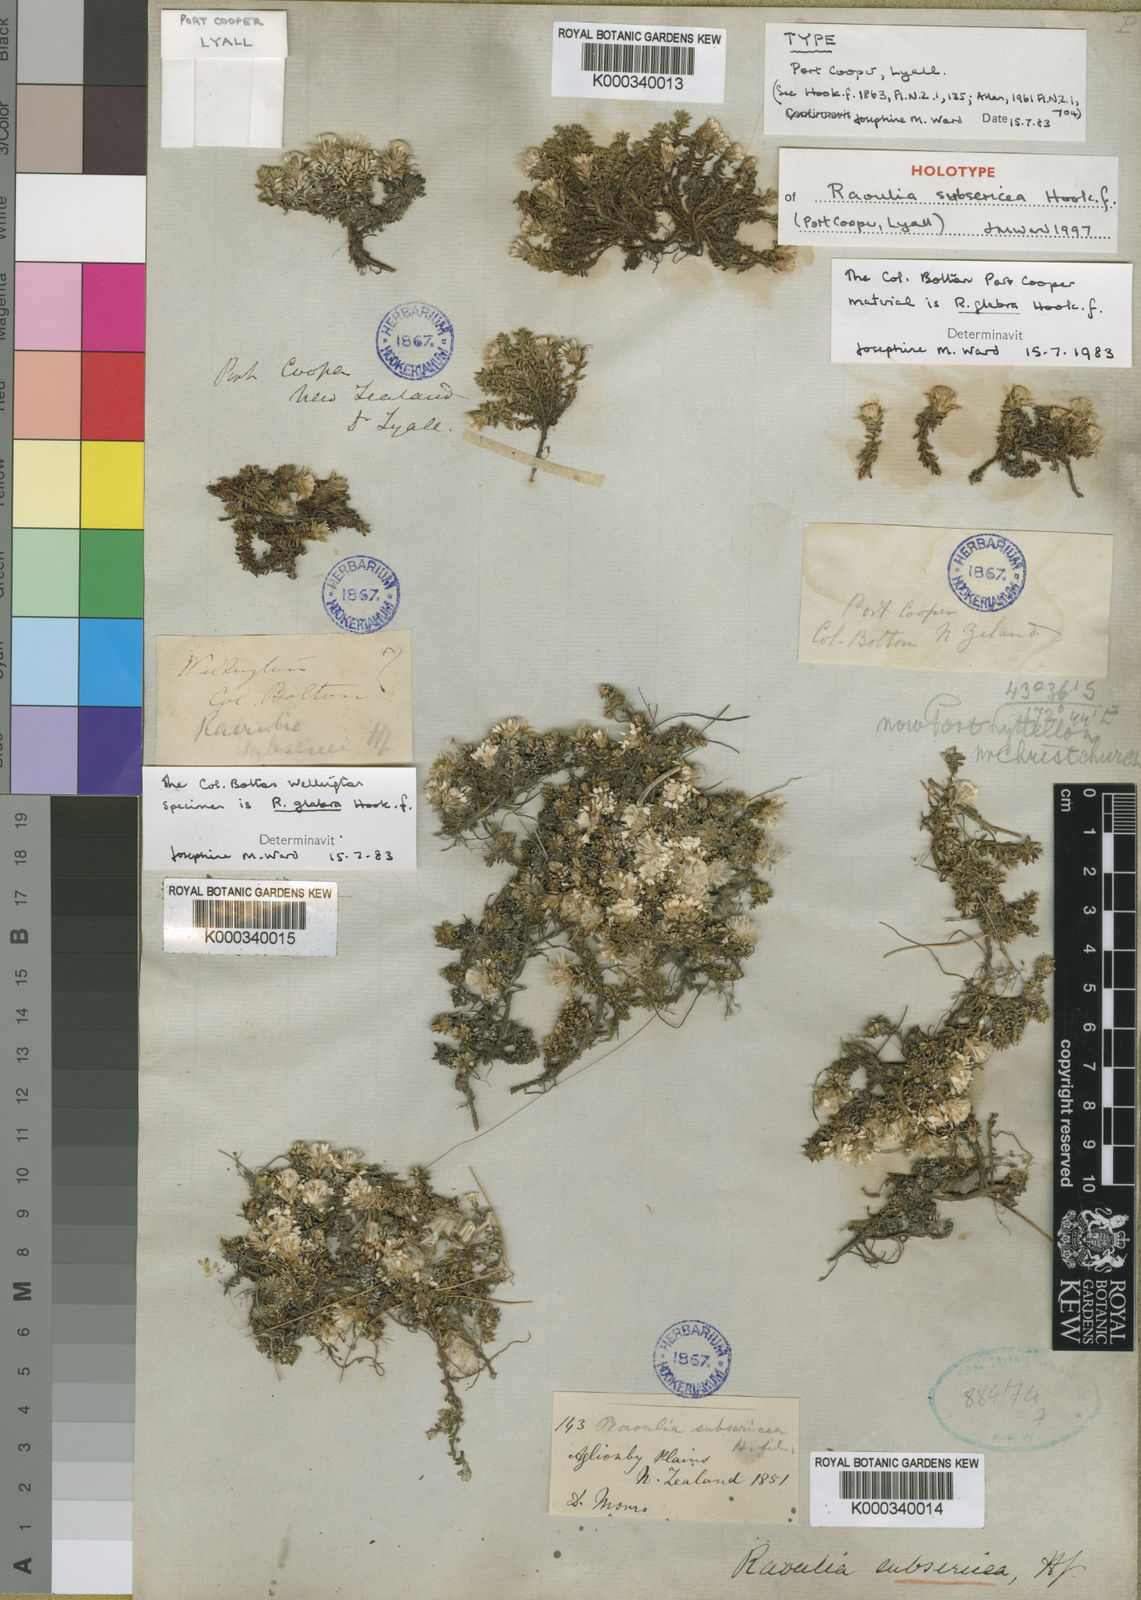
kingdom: Plantae
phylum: Tracheophyta
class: Magnoliopsida
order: Asterales
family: Asteraceae
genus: Raoulia
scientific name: Raoulia subsericea
